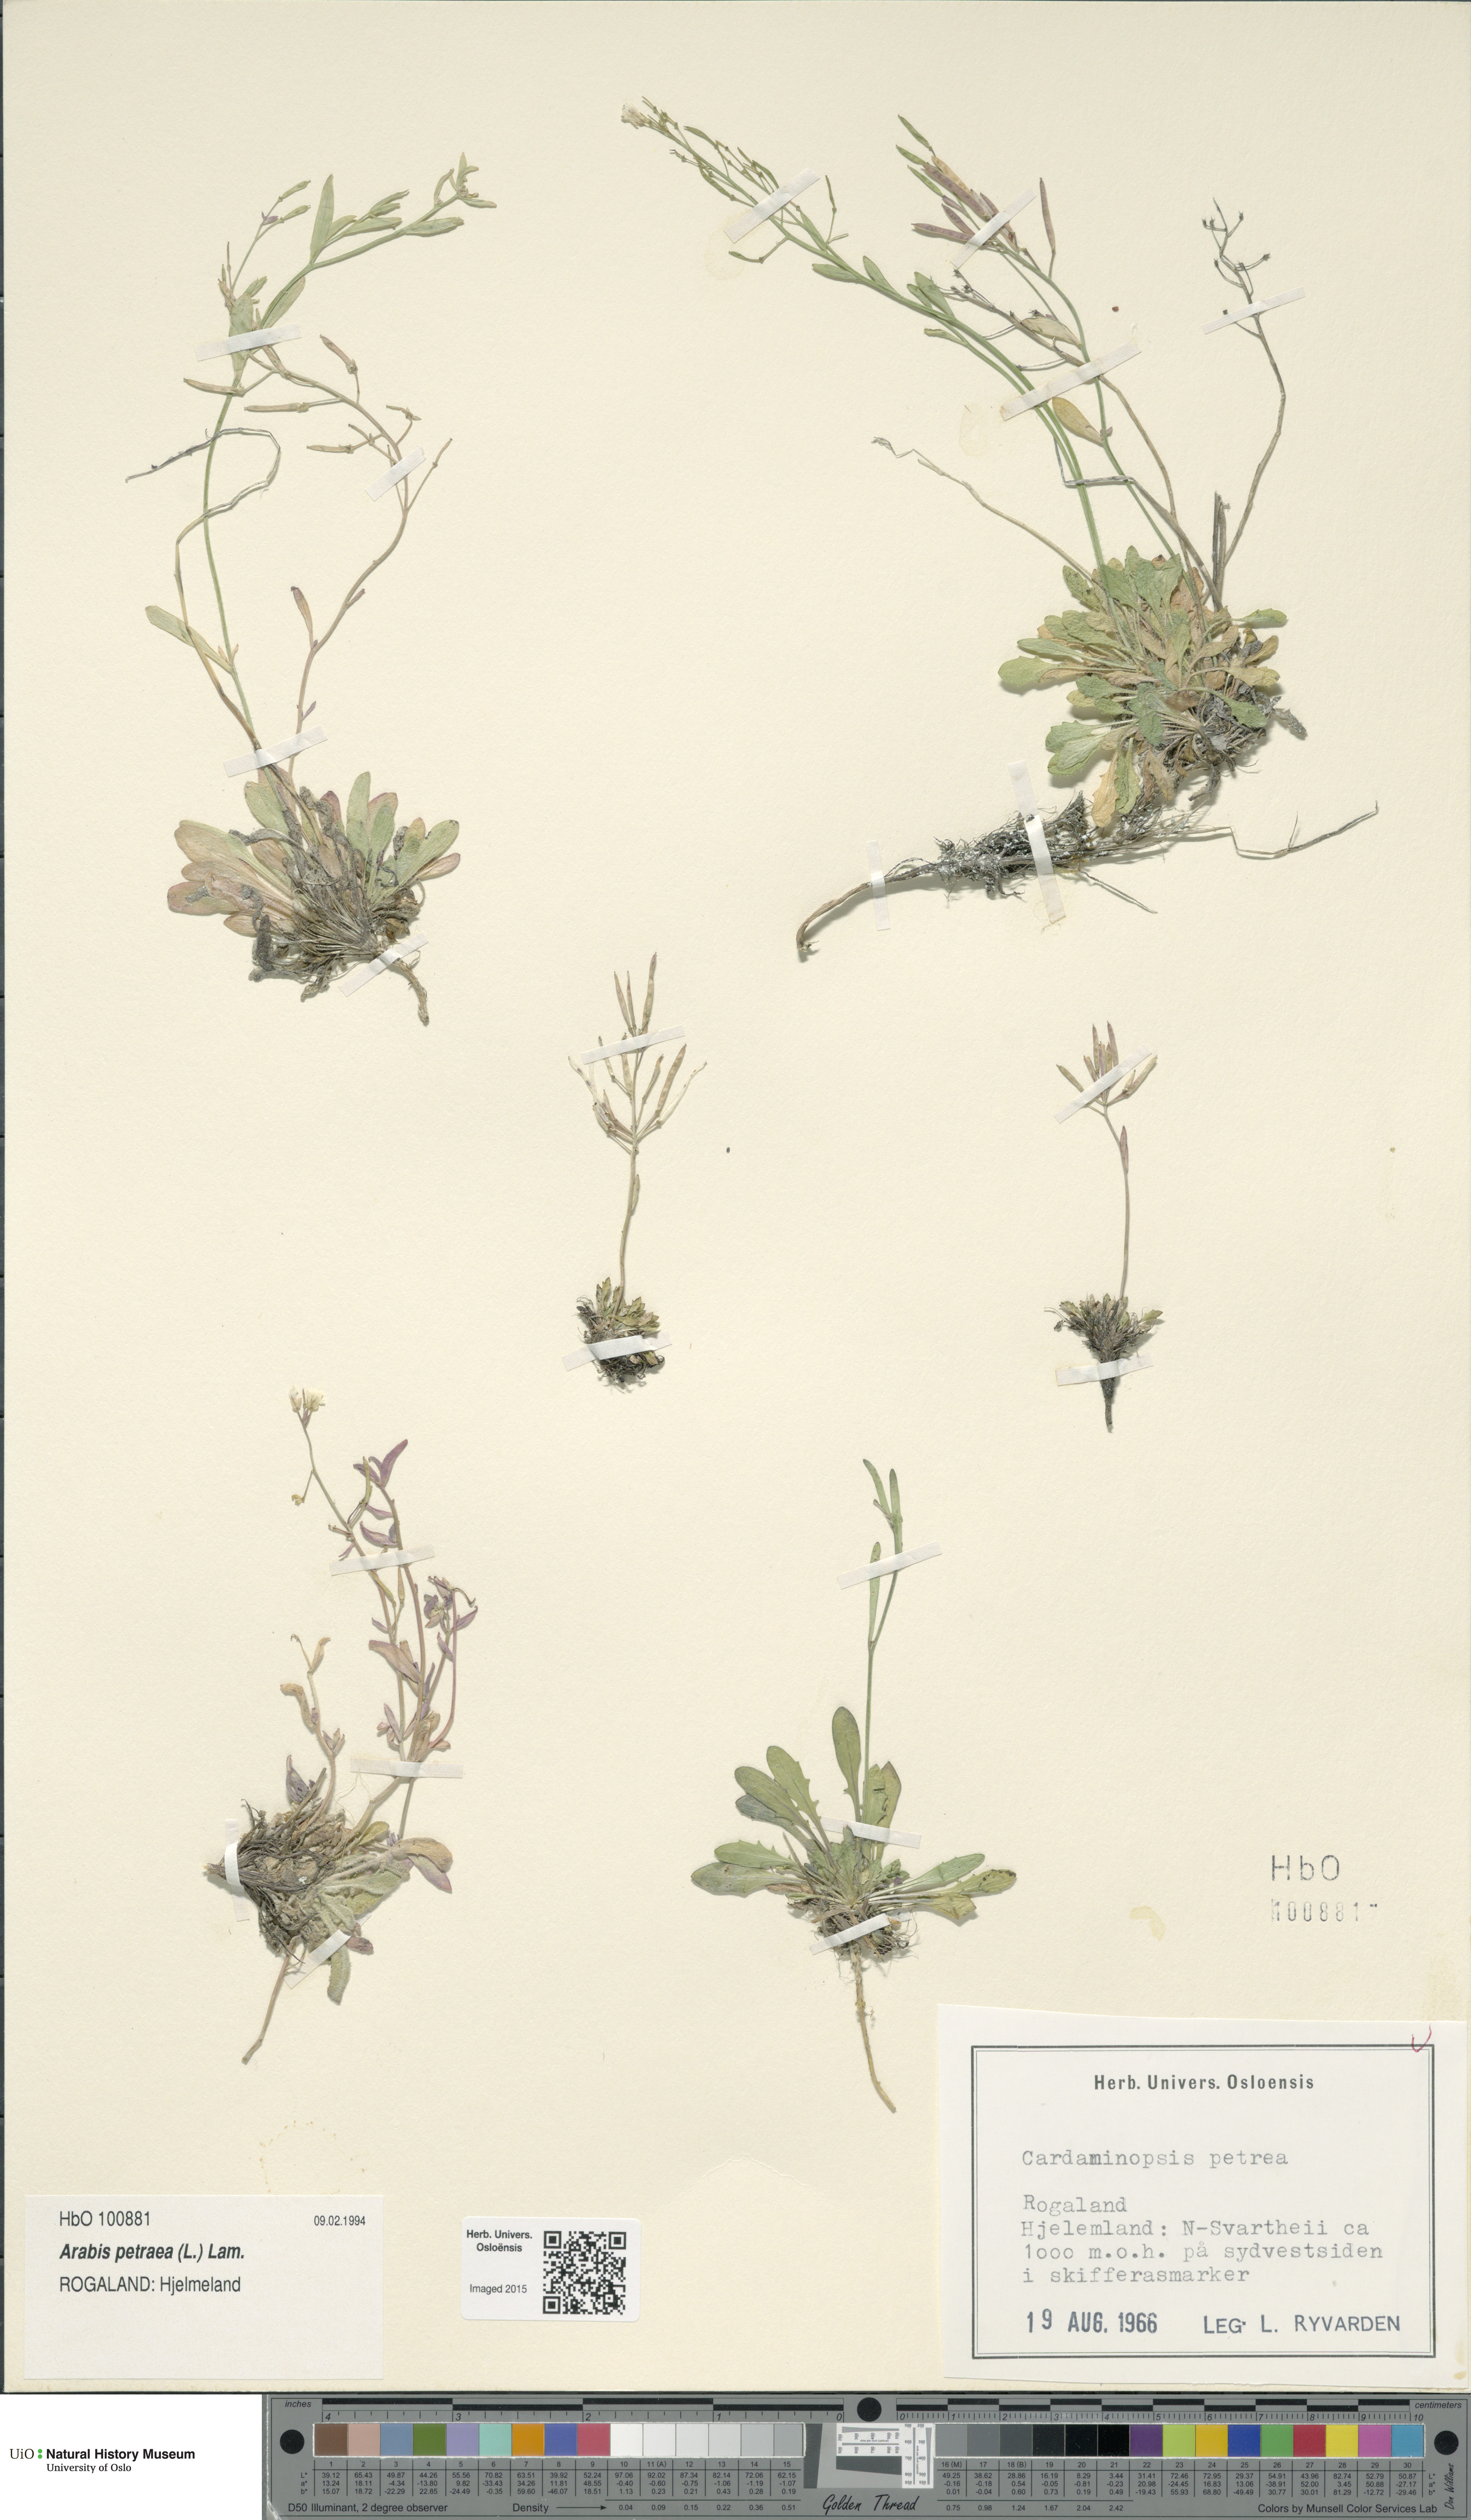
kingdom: Plantae
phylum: Tracheophyta
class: Magnoliopsida
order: Brassicales
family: Brassicaceae
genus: Arabidopsis
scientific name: Arabidopsis petraea
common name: Northern rock-cress
